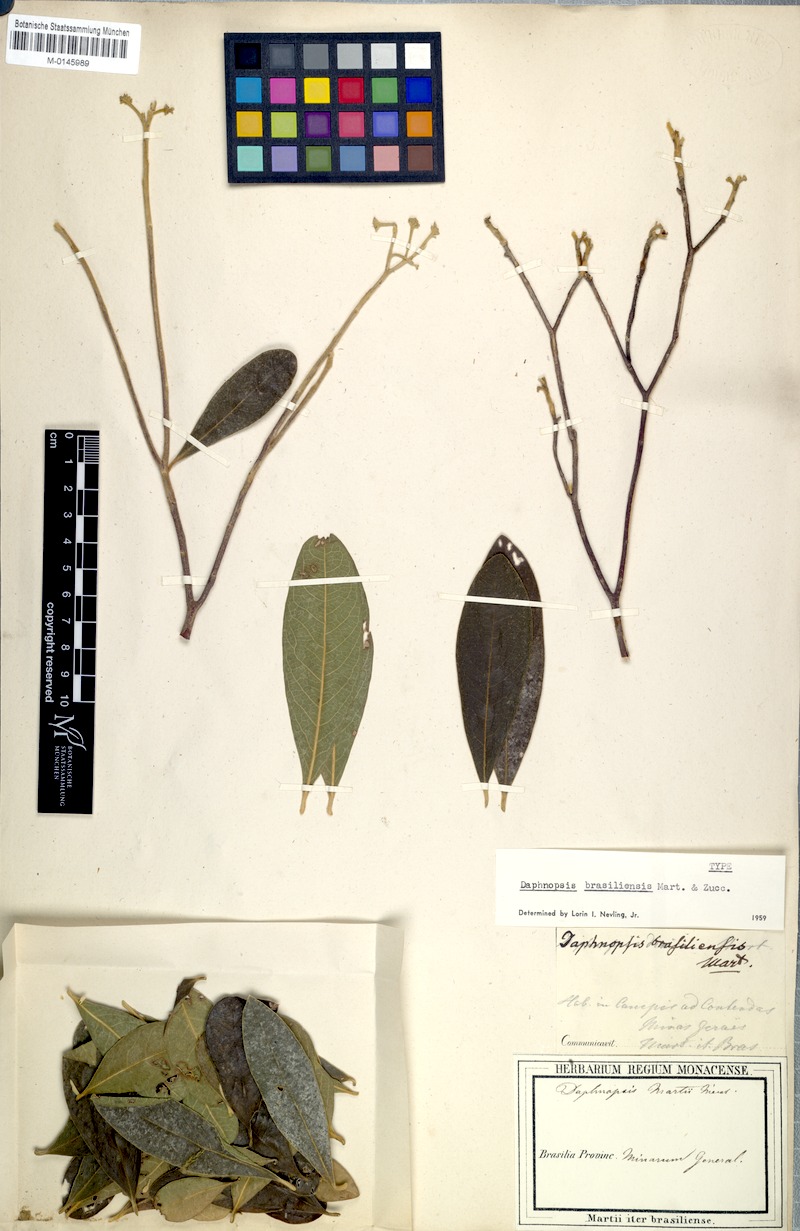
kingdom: Plantae
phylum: Tracheophyta
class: Magnoliopsida
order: Malvales
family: Thymelaeaceae
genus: Daphnopsis
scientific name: Daphnopsis brasiliensis
